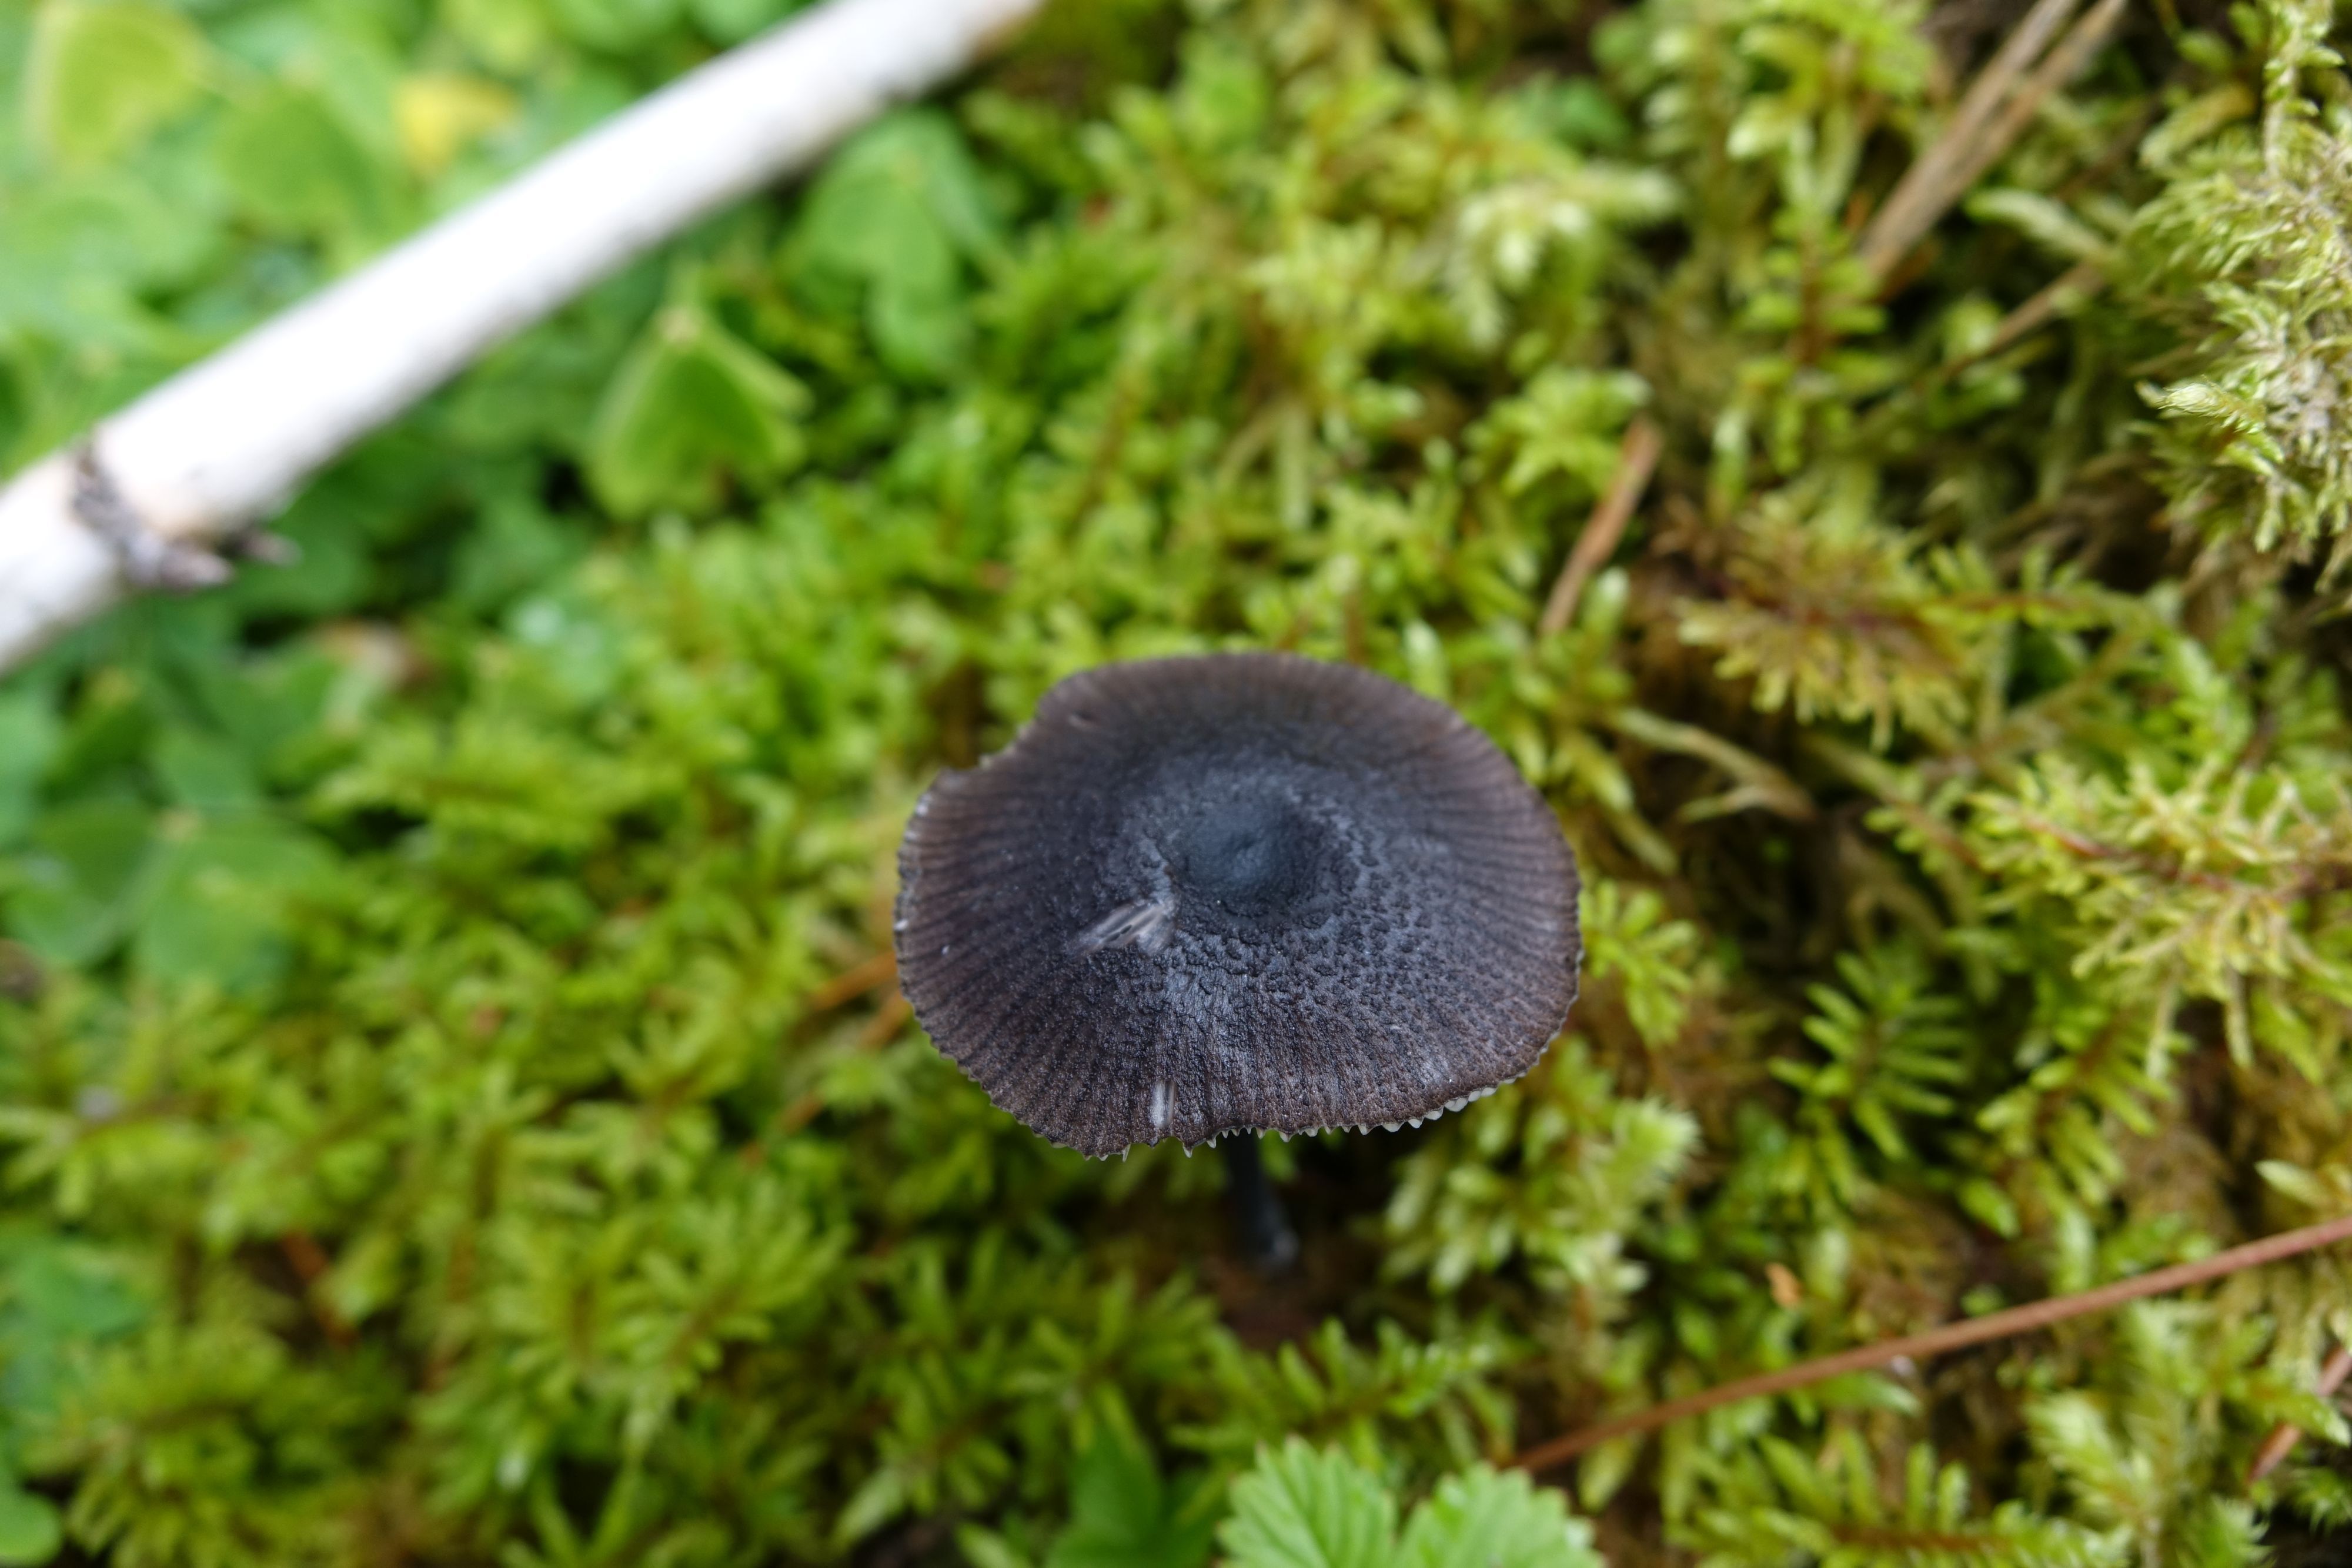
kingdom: Fungi
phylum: Basidiomycota
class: Agaricomycetes
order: Agaricales
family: Entolomataceae
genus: Entoloma
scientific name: Entoloma chalybeum
